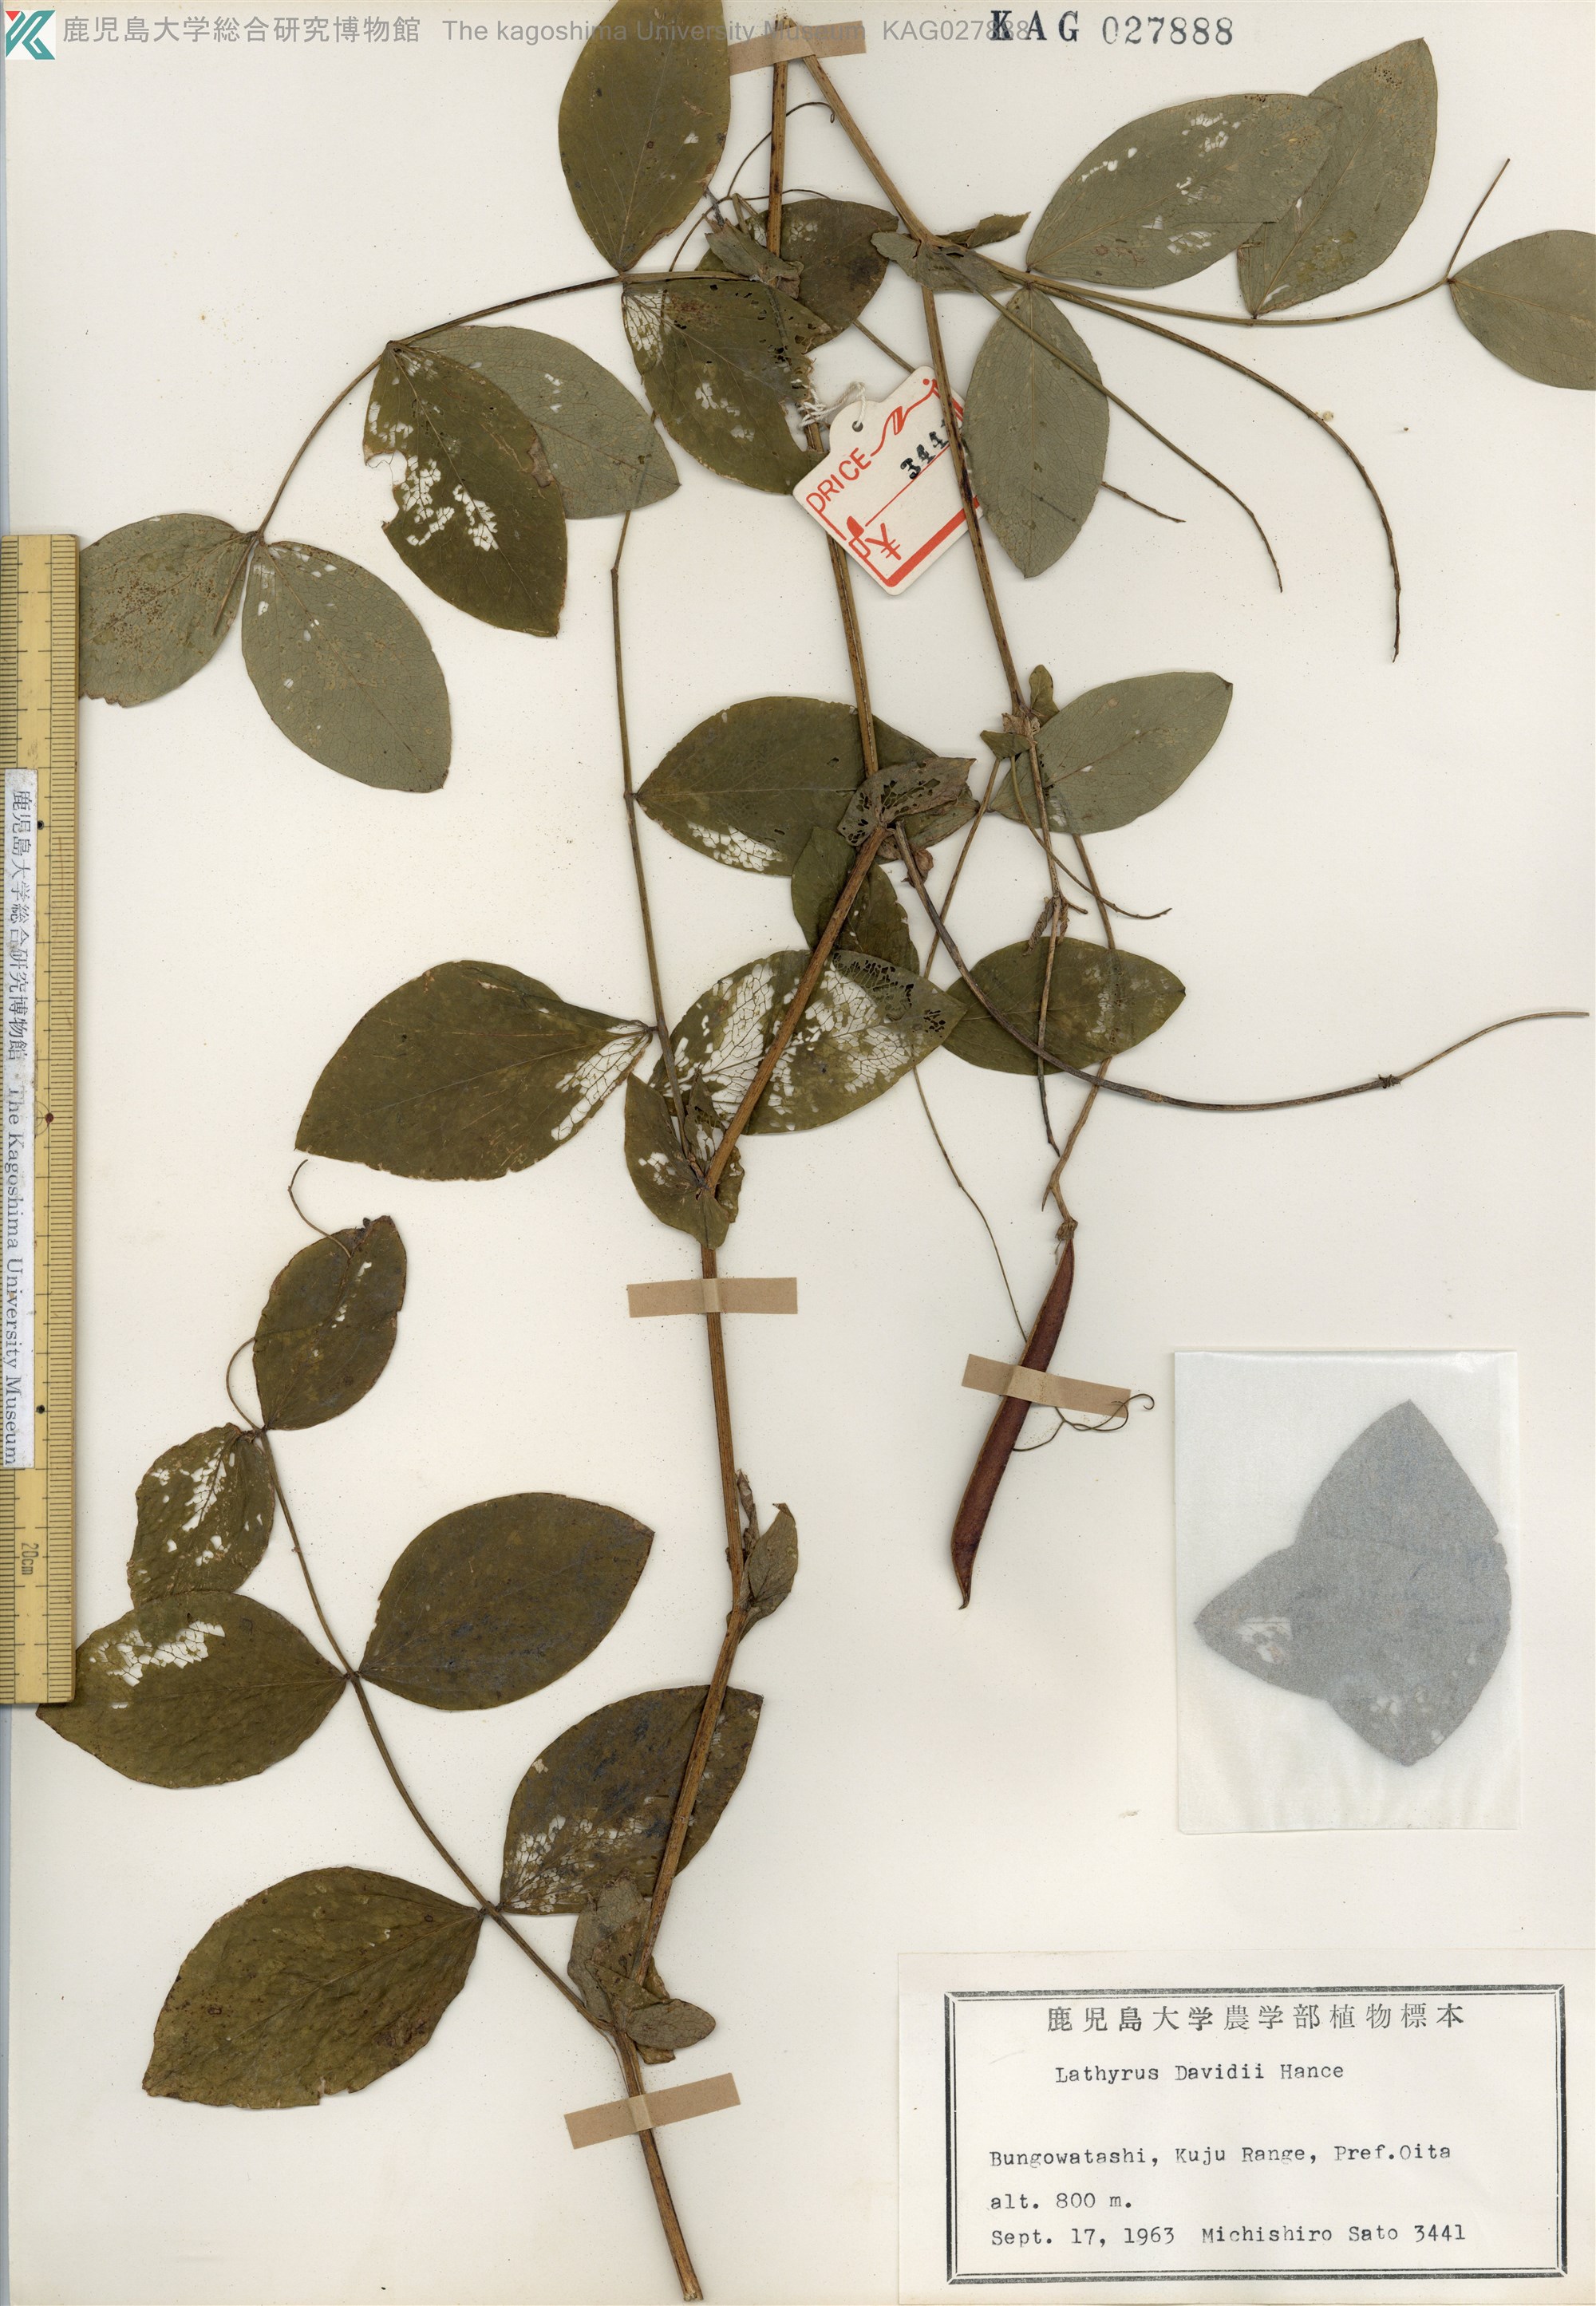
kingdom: Plantae
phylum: Tracheophyta
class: Magnoliopsida
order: Fabales
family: Fabaceae
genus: Lathyrus
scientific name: Lathyrus davidii
